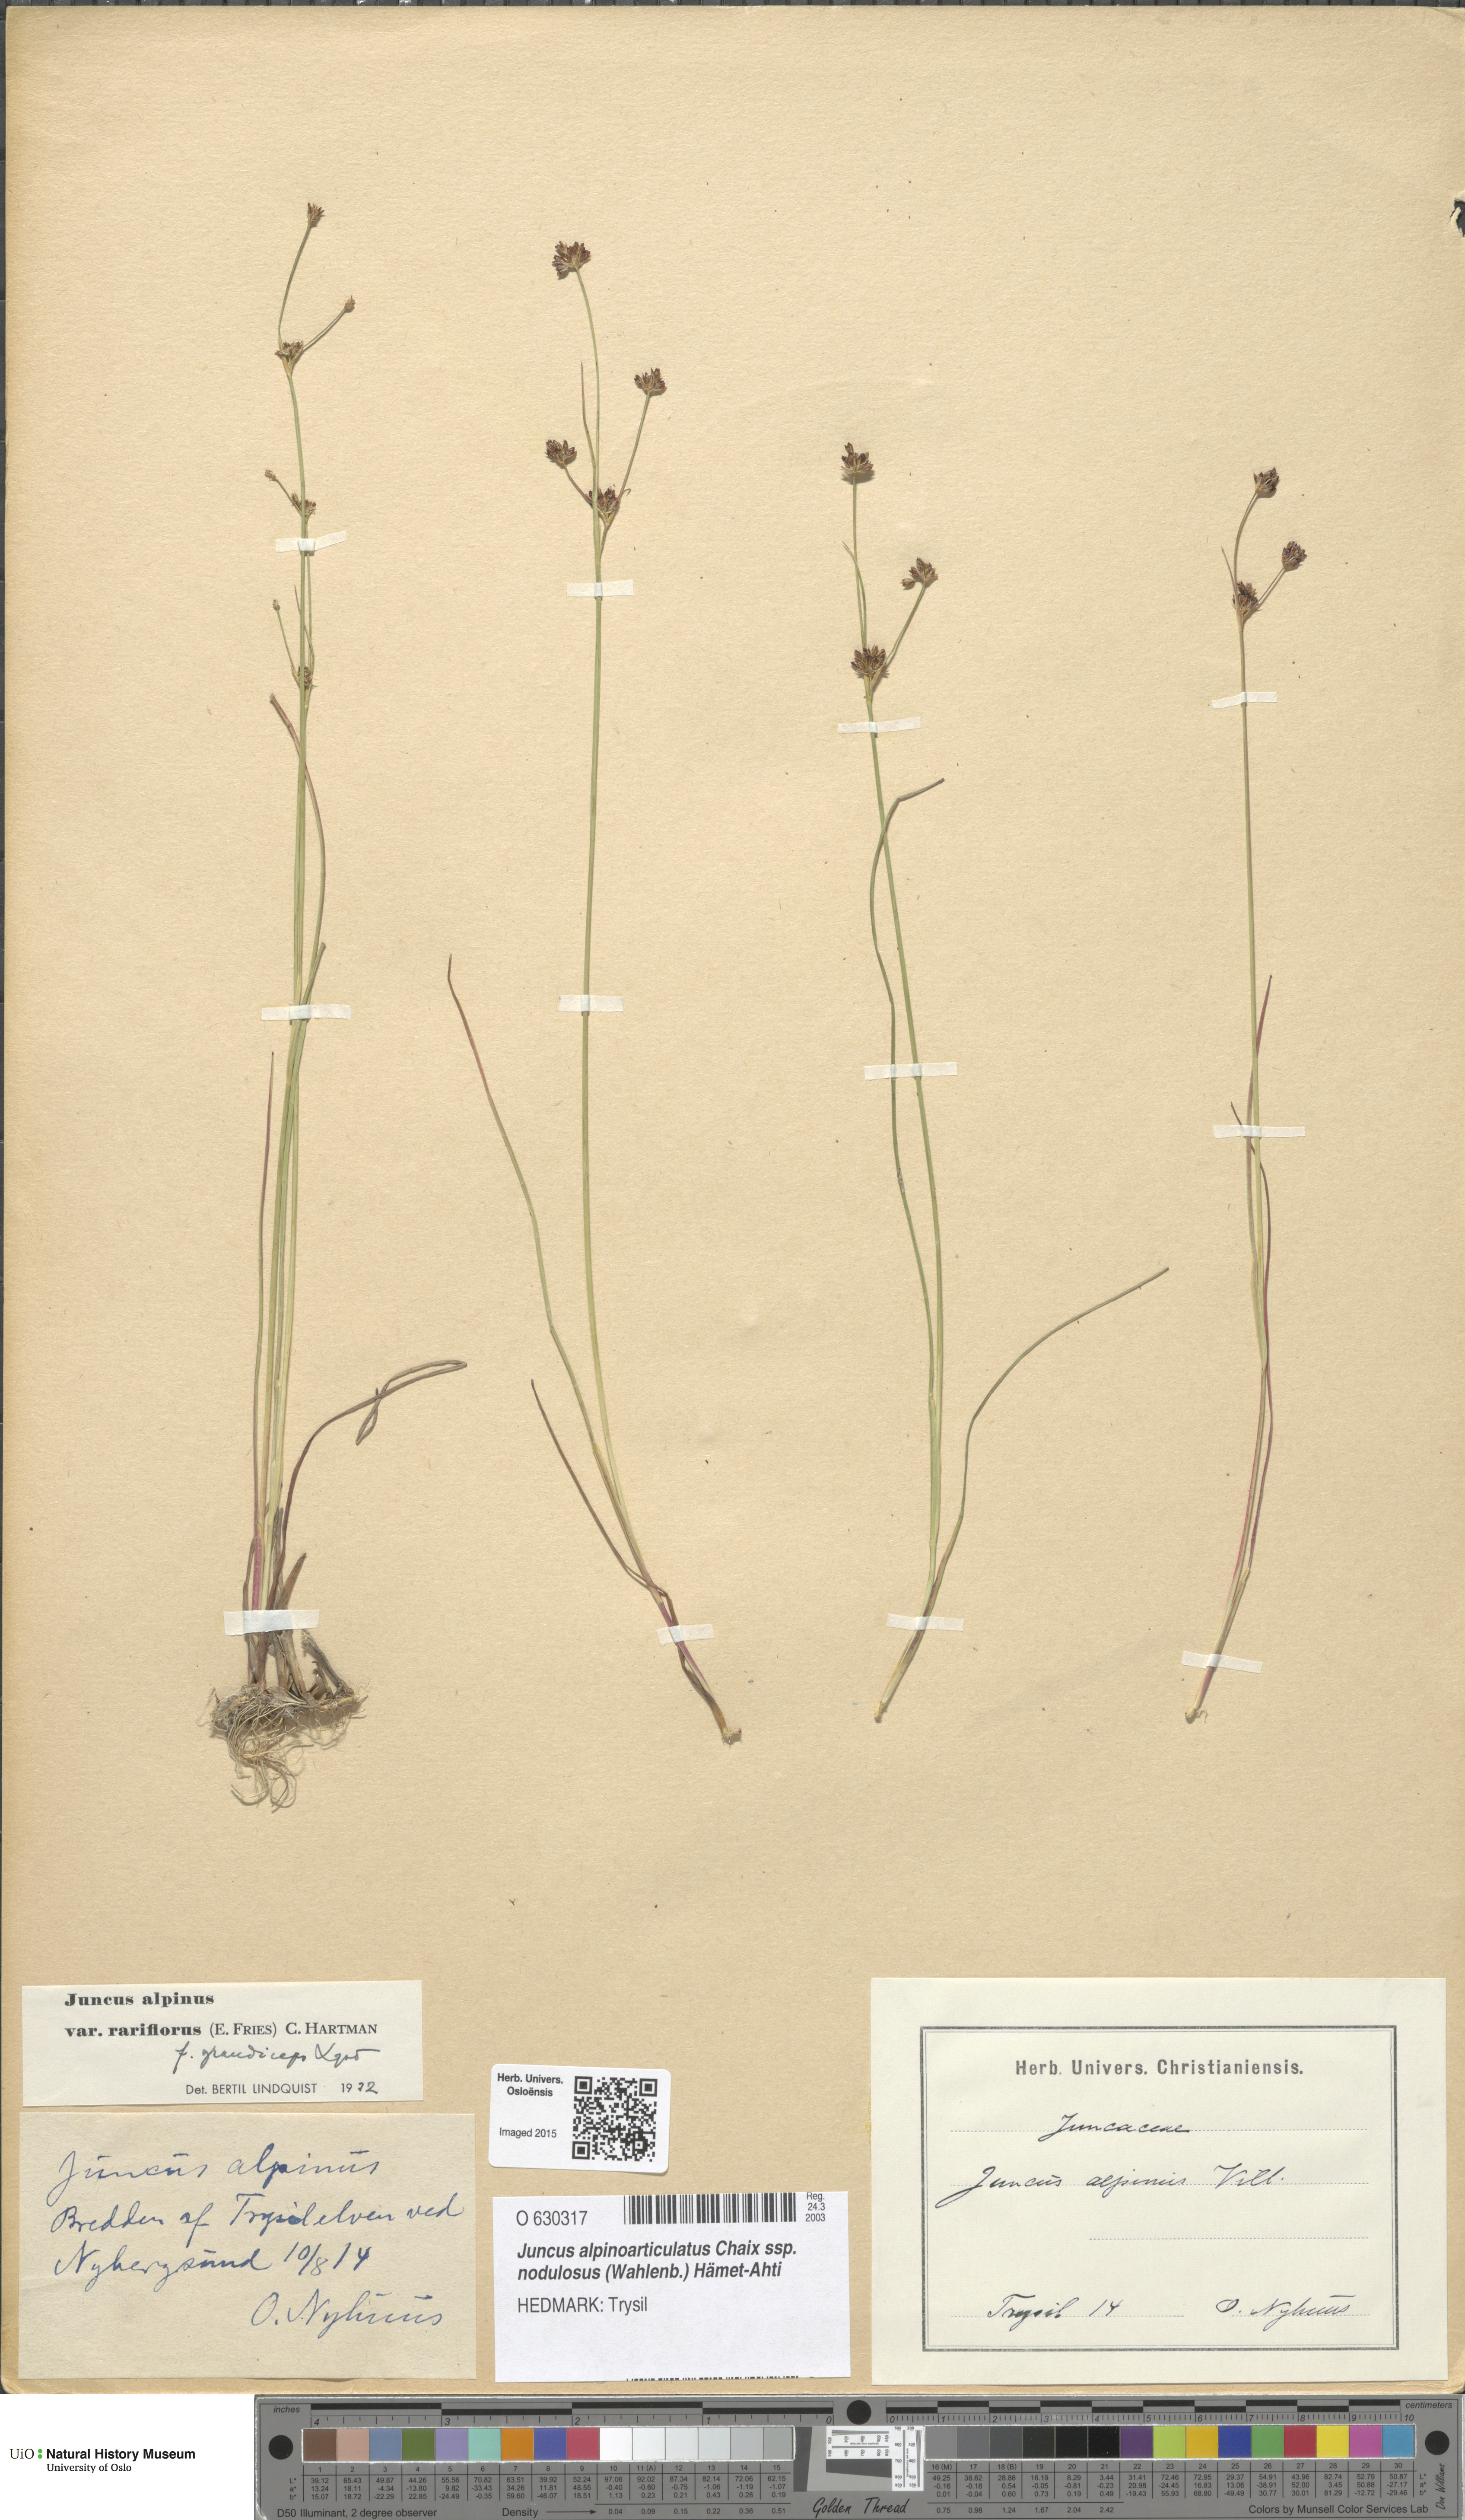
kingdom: Plantae
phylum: Tracheophyta
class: Liliopsida
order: Poales
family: Juncaceae
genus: Juncus
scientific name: Juncus alpinoarticulatus
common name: Alpine rush
